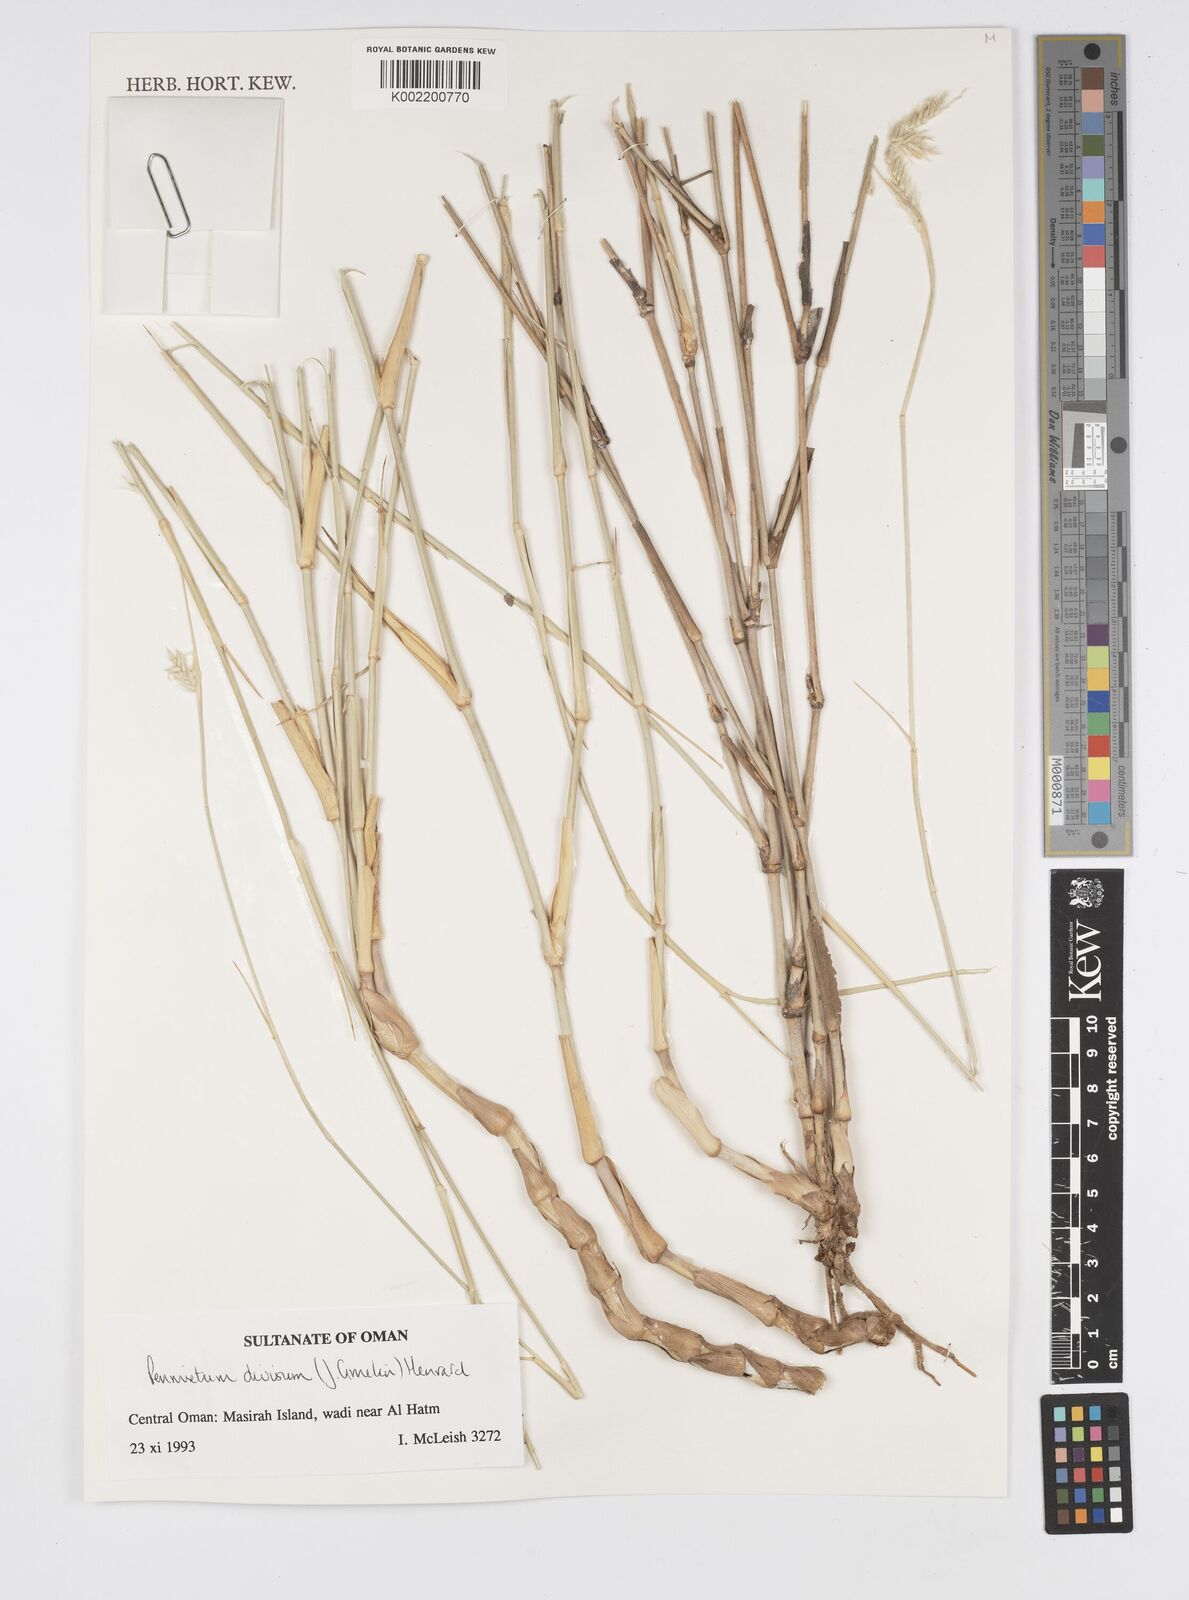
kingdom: Plantae
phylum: Tracheophyta
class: Liliopsida
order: Poales
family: Poaceae
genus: Cenchrus
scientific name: Cenchrus divisus
